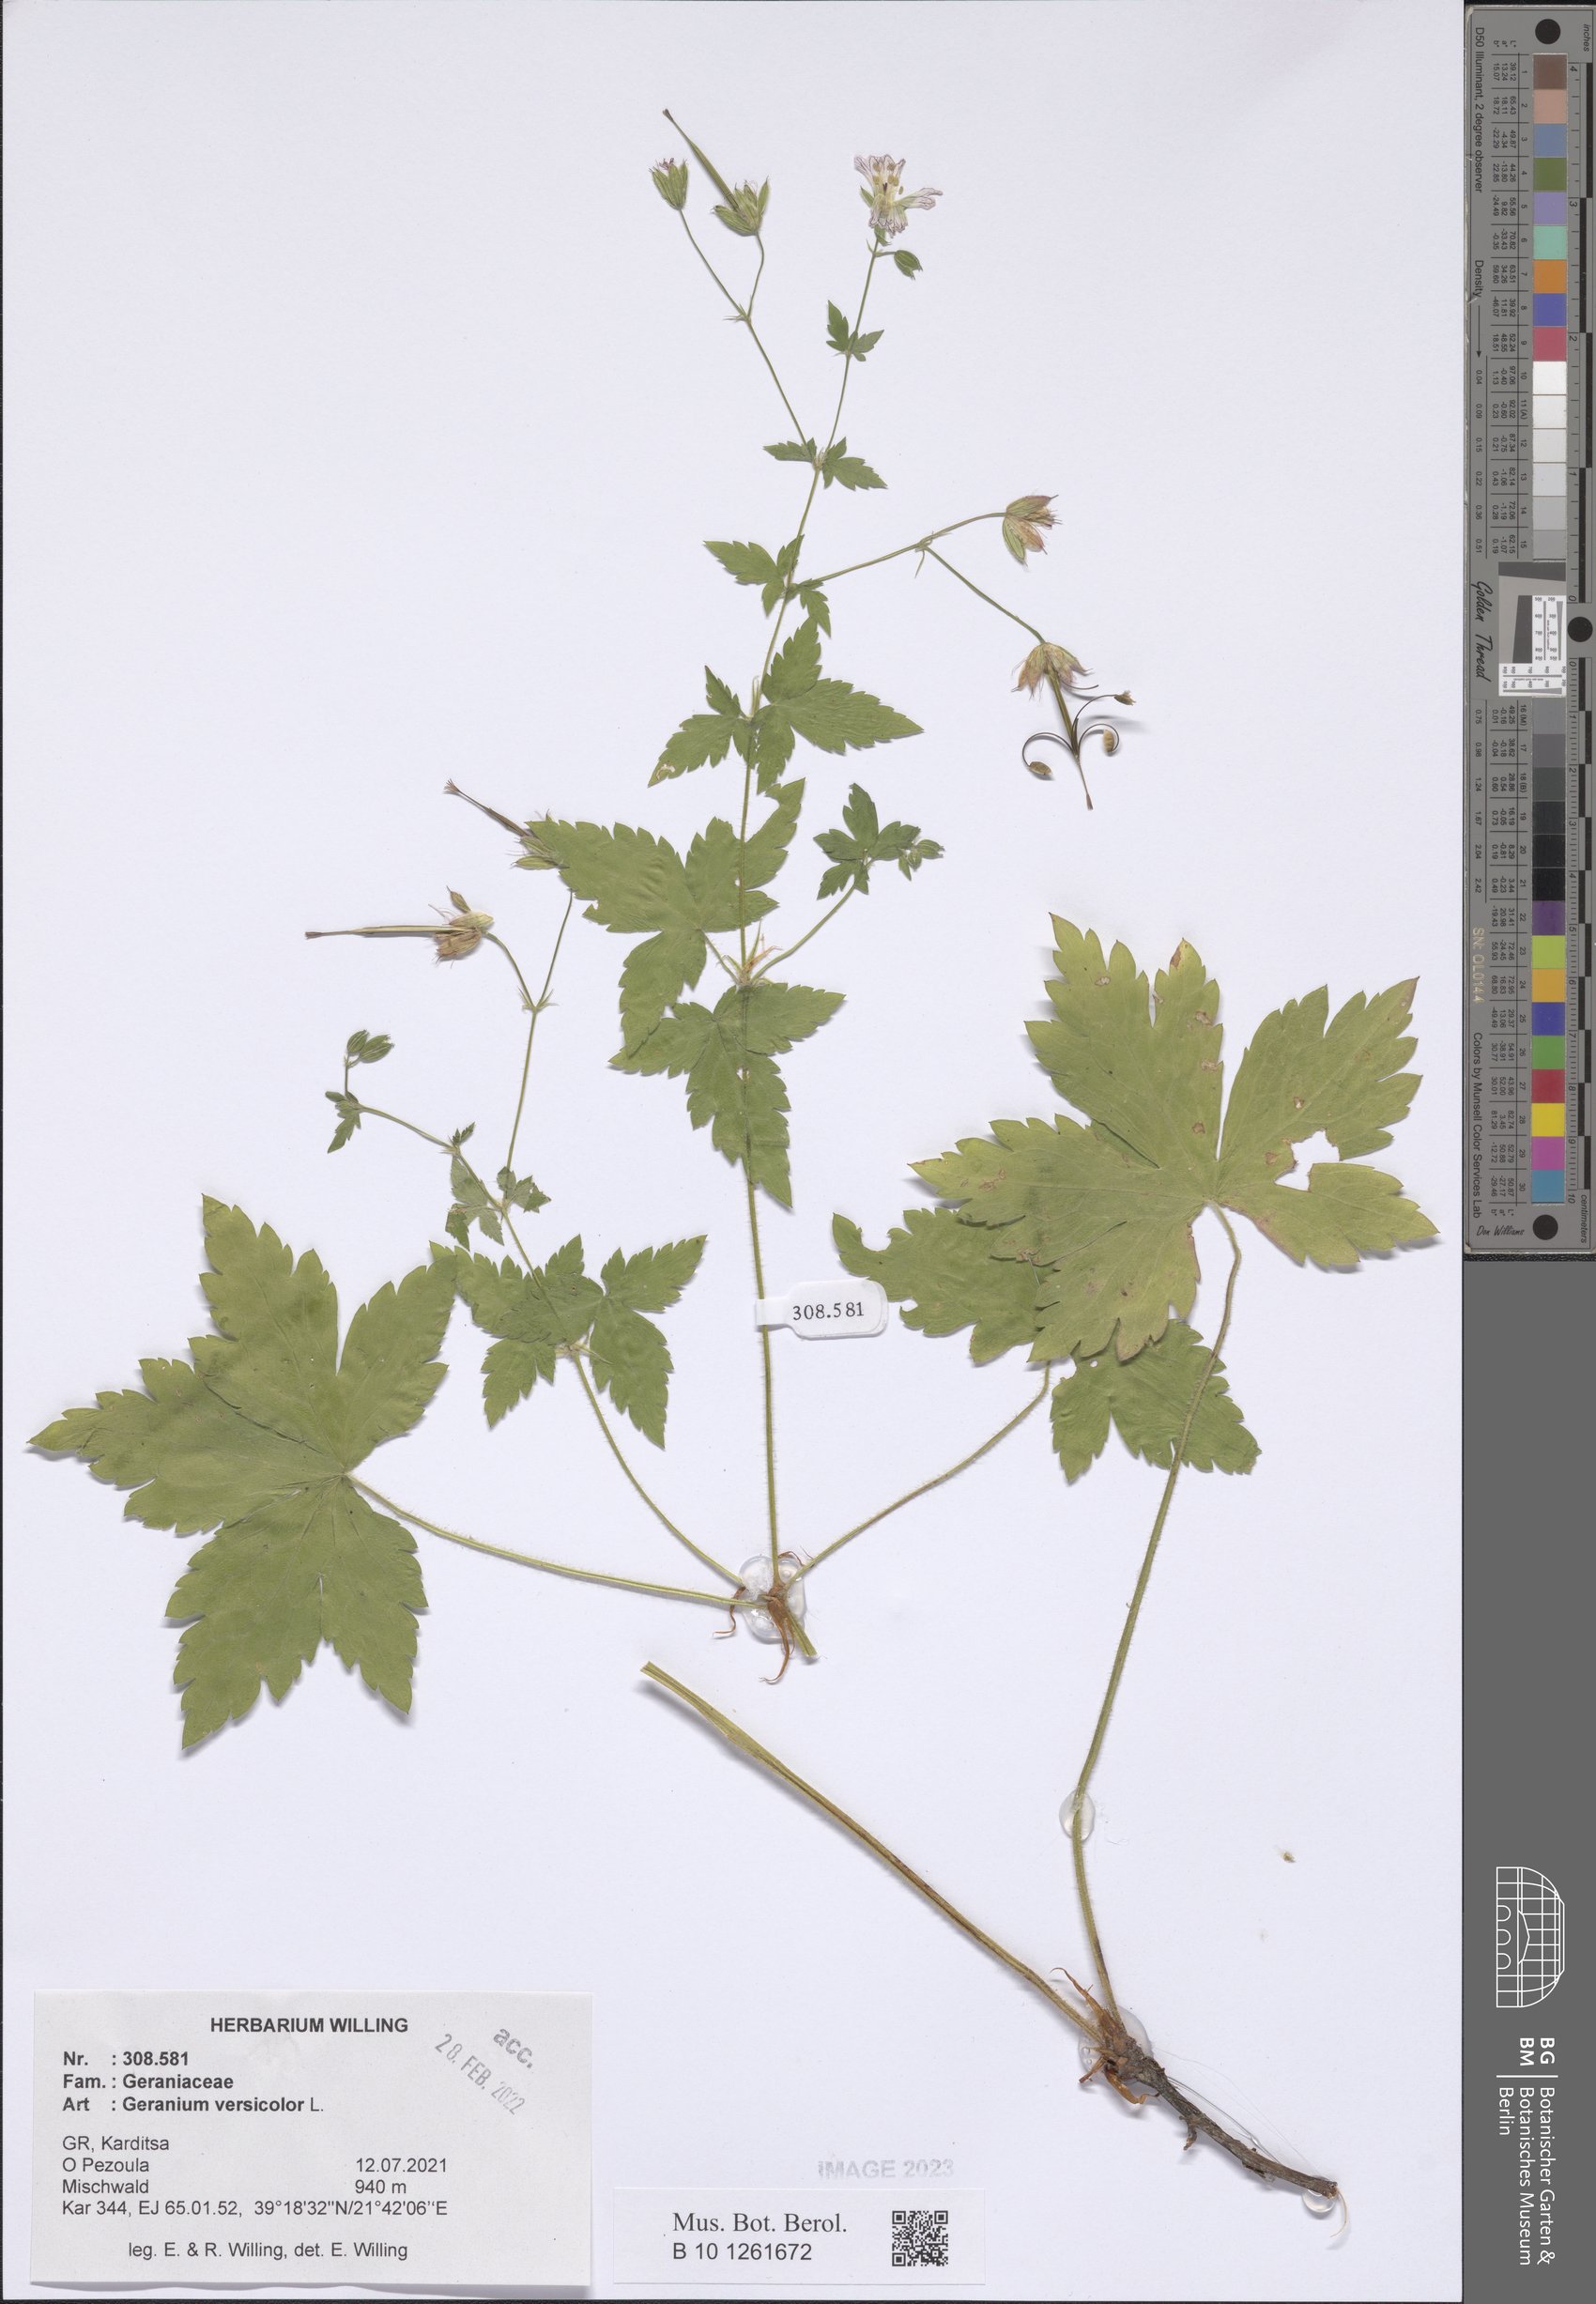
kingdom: Plantae
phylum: Tracheophyta
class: Magnoliopsida
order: Geraniales
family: Geraniaceae
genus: Geranium
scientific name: Geranium versicolor
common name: Pencilled crane's-bill
